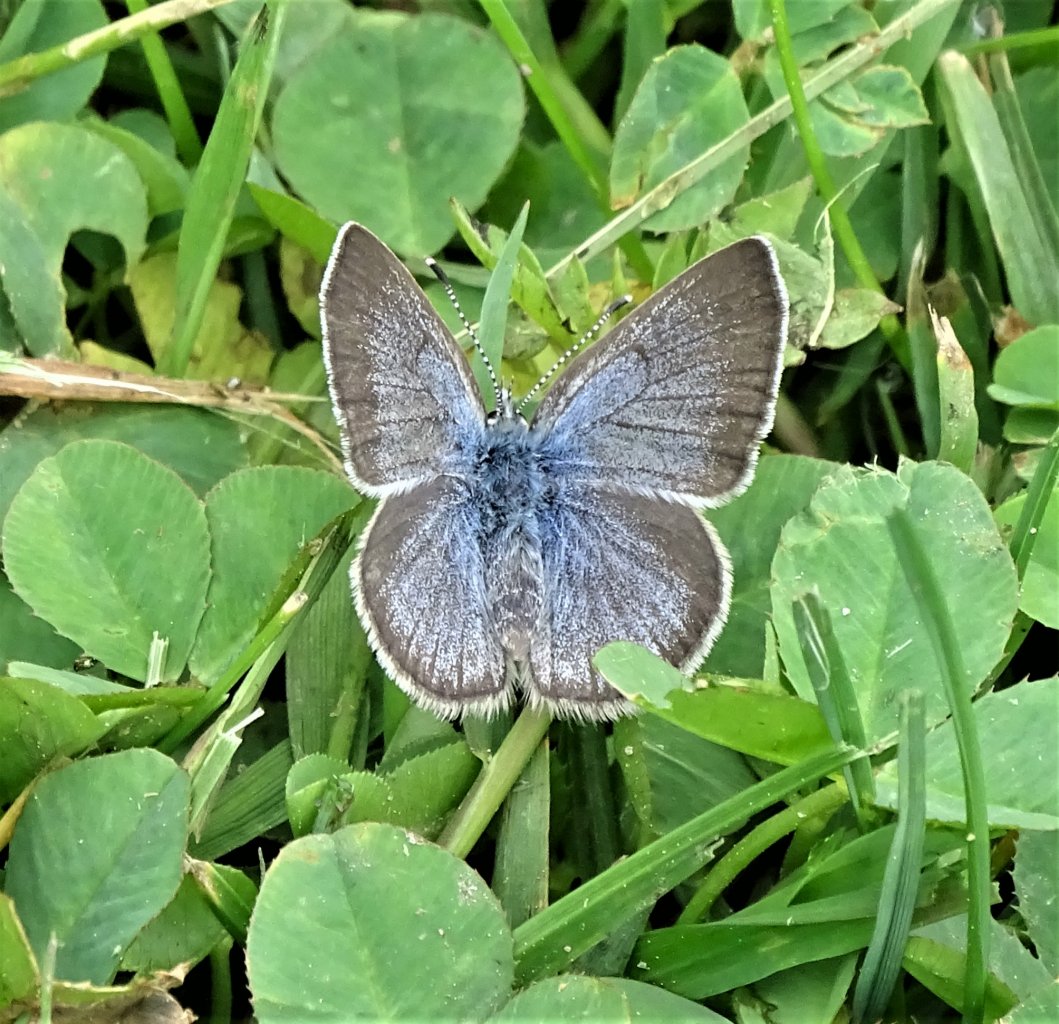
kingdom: Animalia
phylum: Arthropoda
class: Insecta
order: Lepidoptera
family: Lycaenidae
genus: Glaucopsyche
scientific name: Glaucopsyche lygdamus
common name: Silvery Blue
